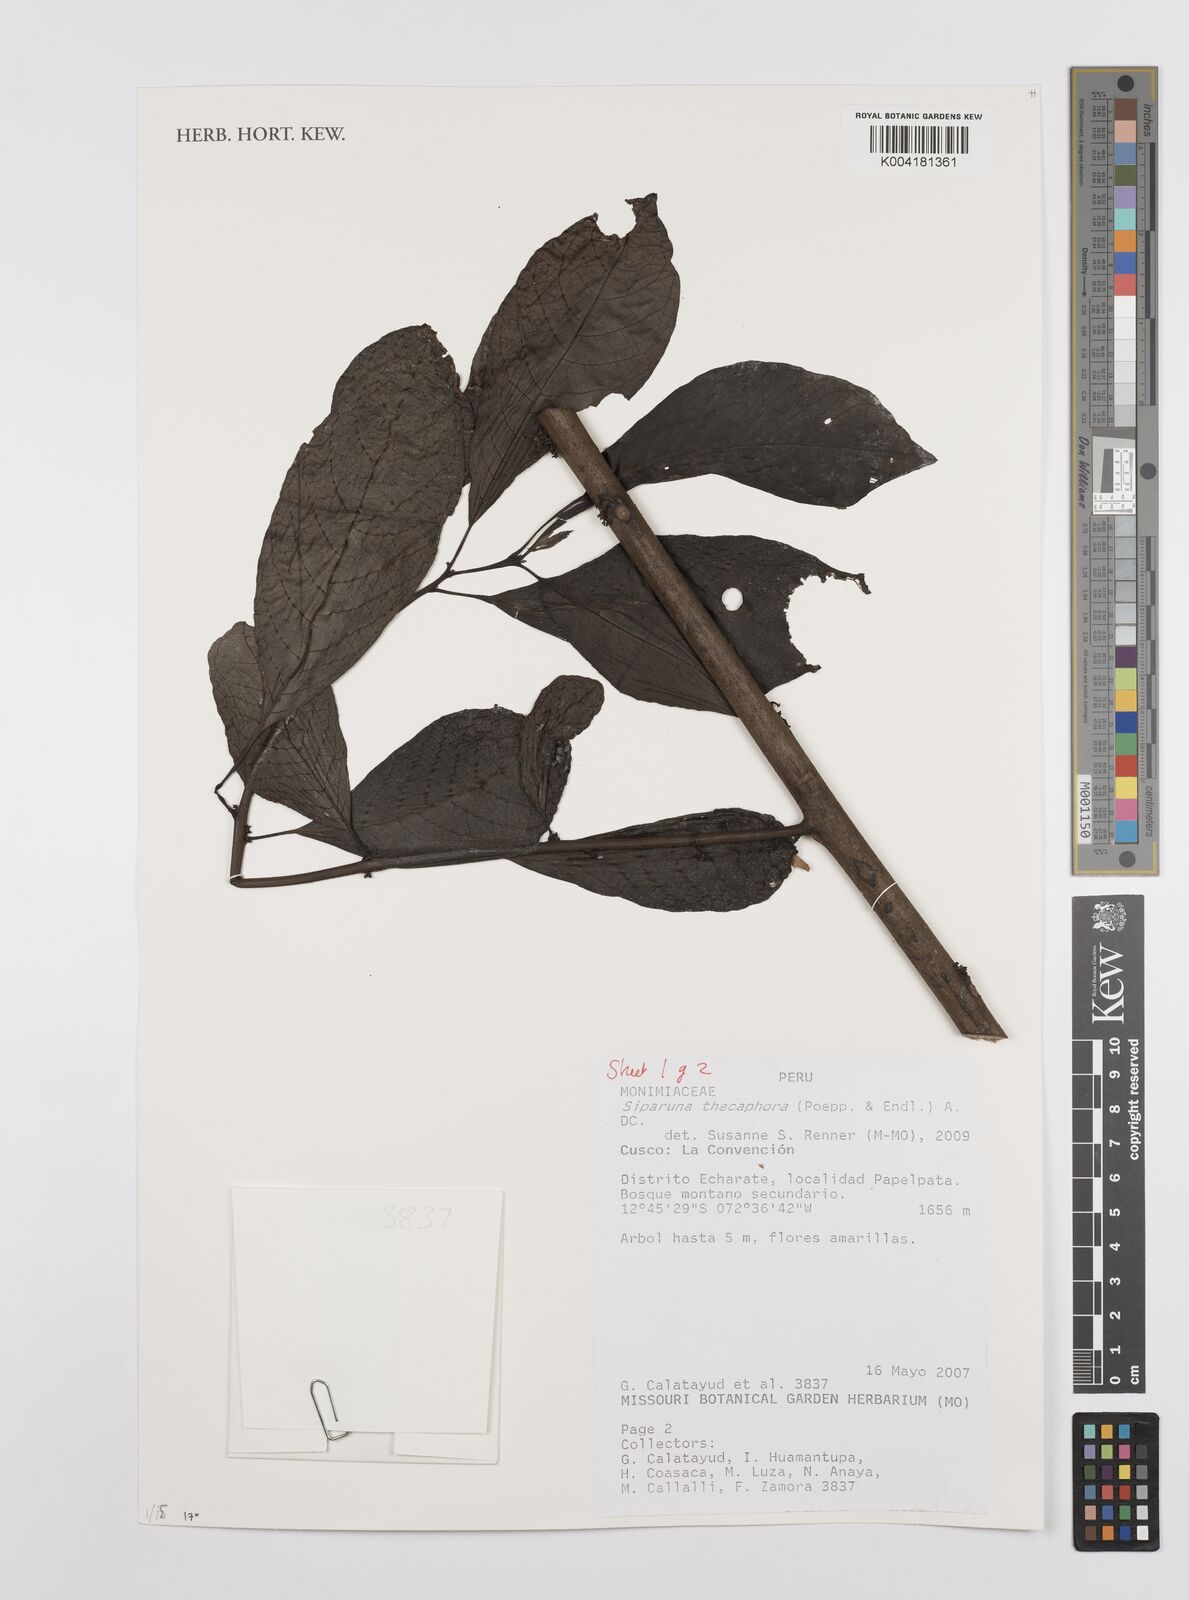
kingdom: Plantae
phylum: Tracheophyta
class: Magnoliopsida
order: Laurales
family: Siparunaceae
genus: Siparuna
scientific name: Siparuna thecaphora
